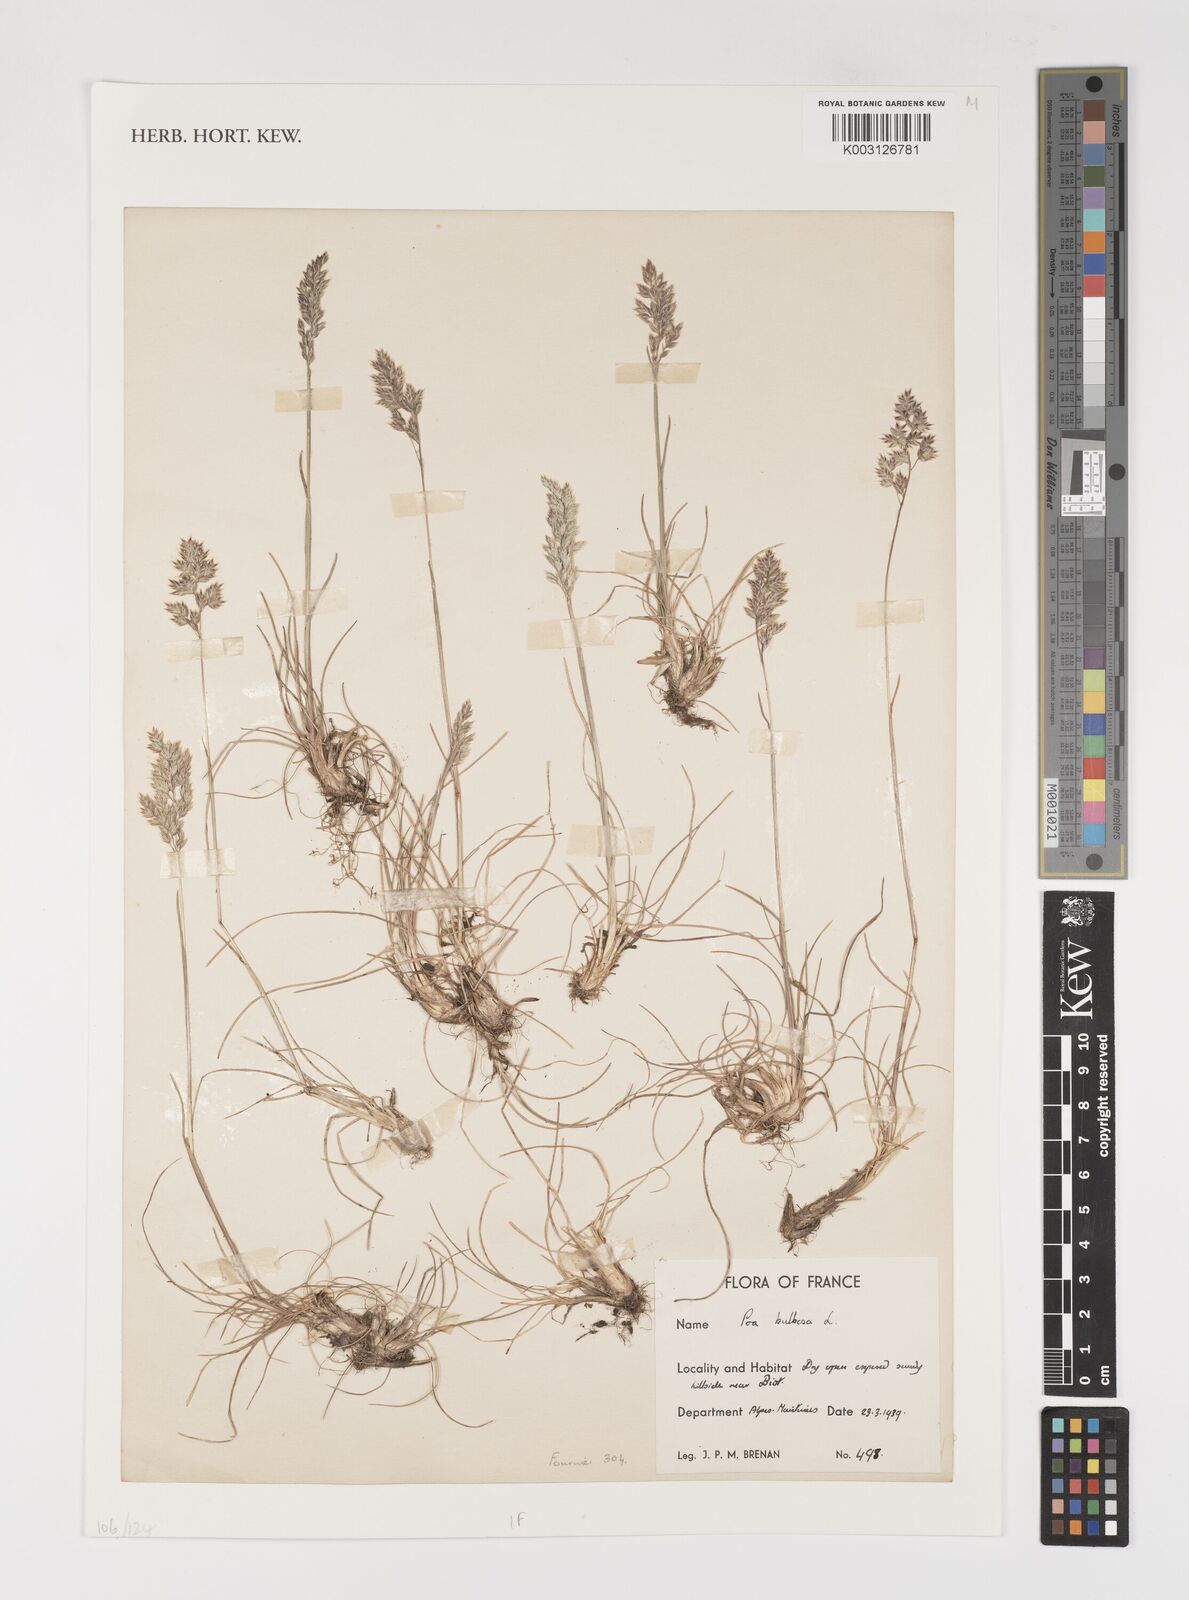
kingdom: Plantae
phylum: Tracheophyta
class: Liliopsida
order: Poales
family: Poaceae
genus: Poa
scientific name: Poa bulbosa
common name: Bulbous bluegrass
